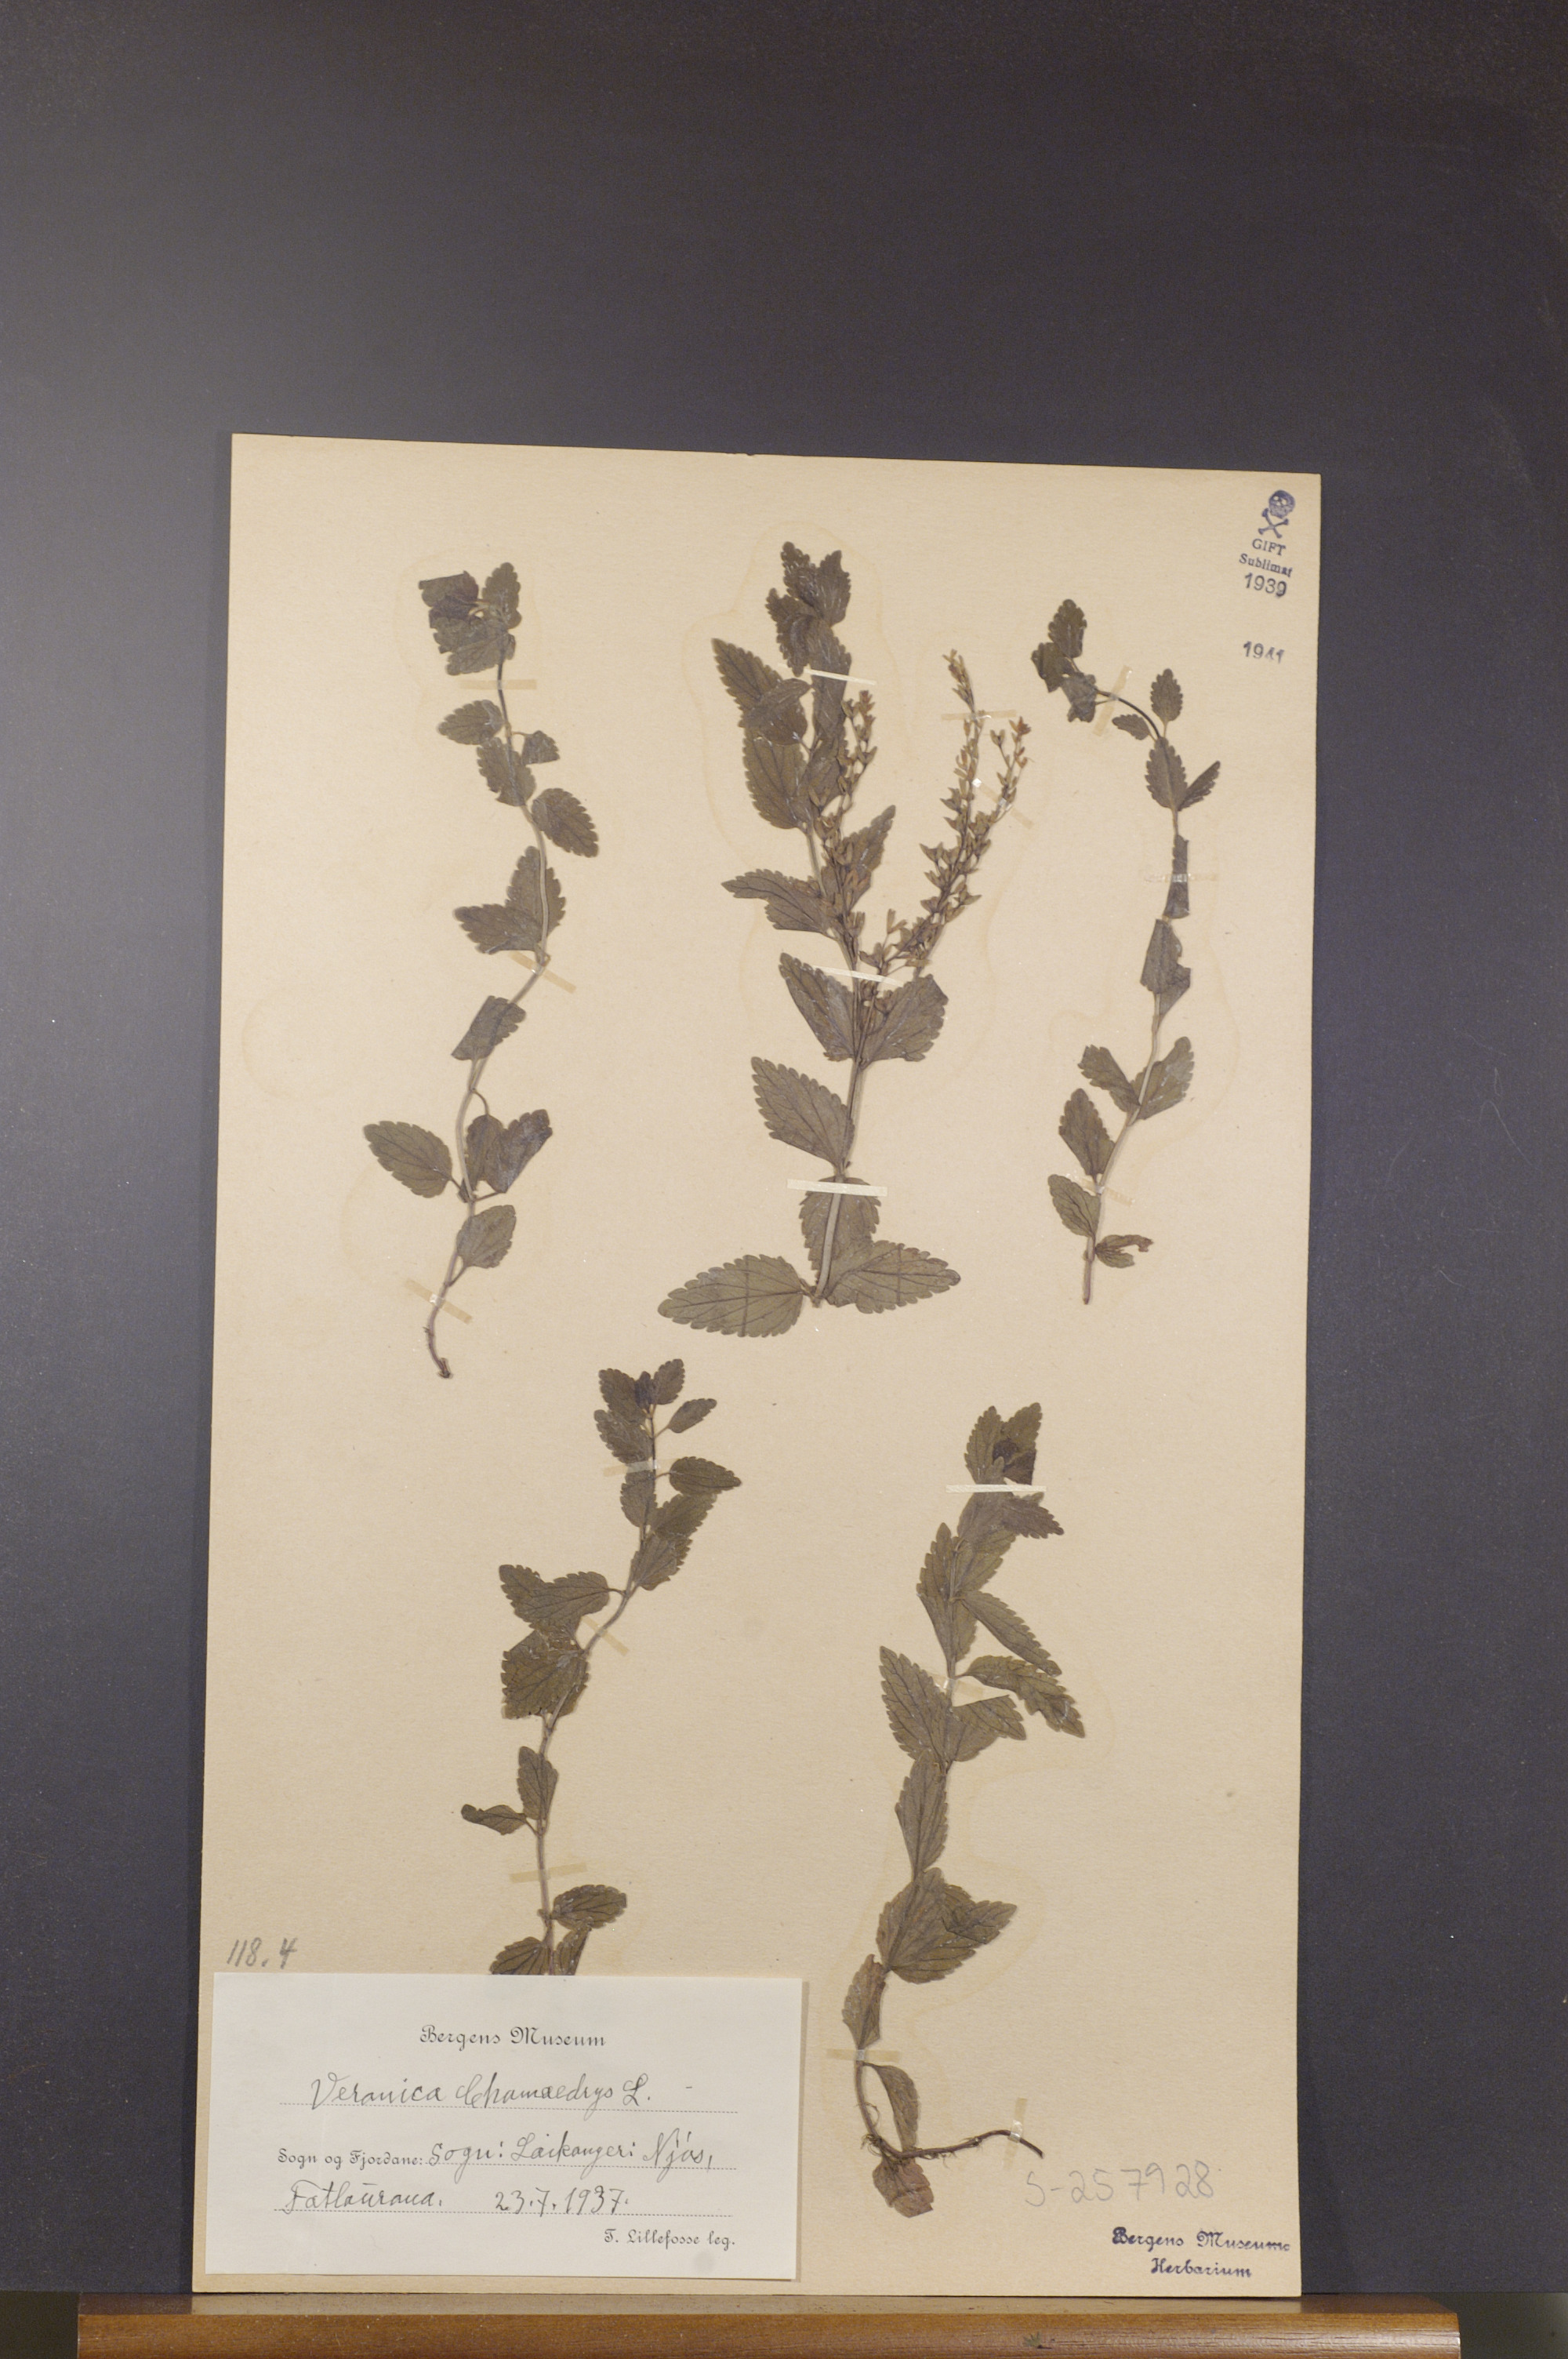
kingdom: Plantae
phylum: Tracheophyta
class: Magnoliopsida
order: Lamiales
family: Plantaginaceae
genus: Veronica
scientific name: Veronica chamaedrys
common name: Germander speedwell
